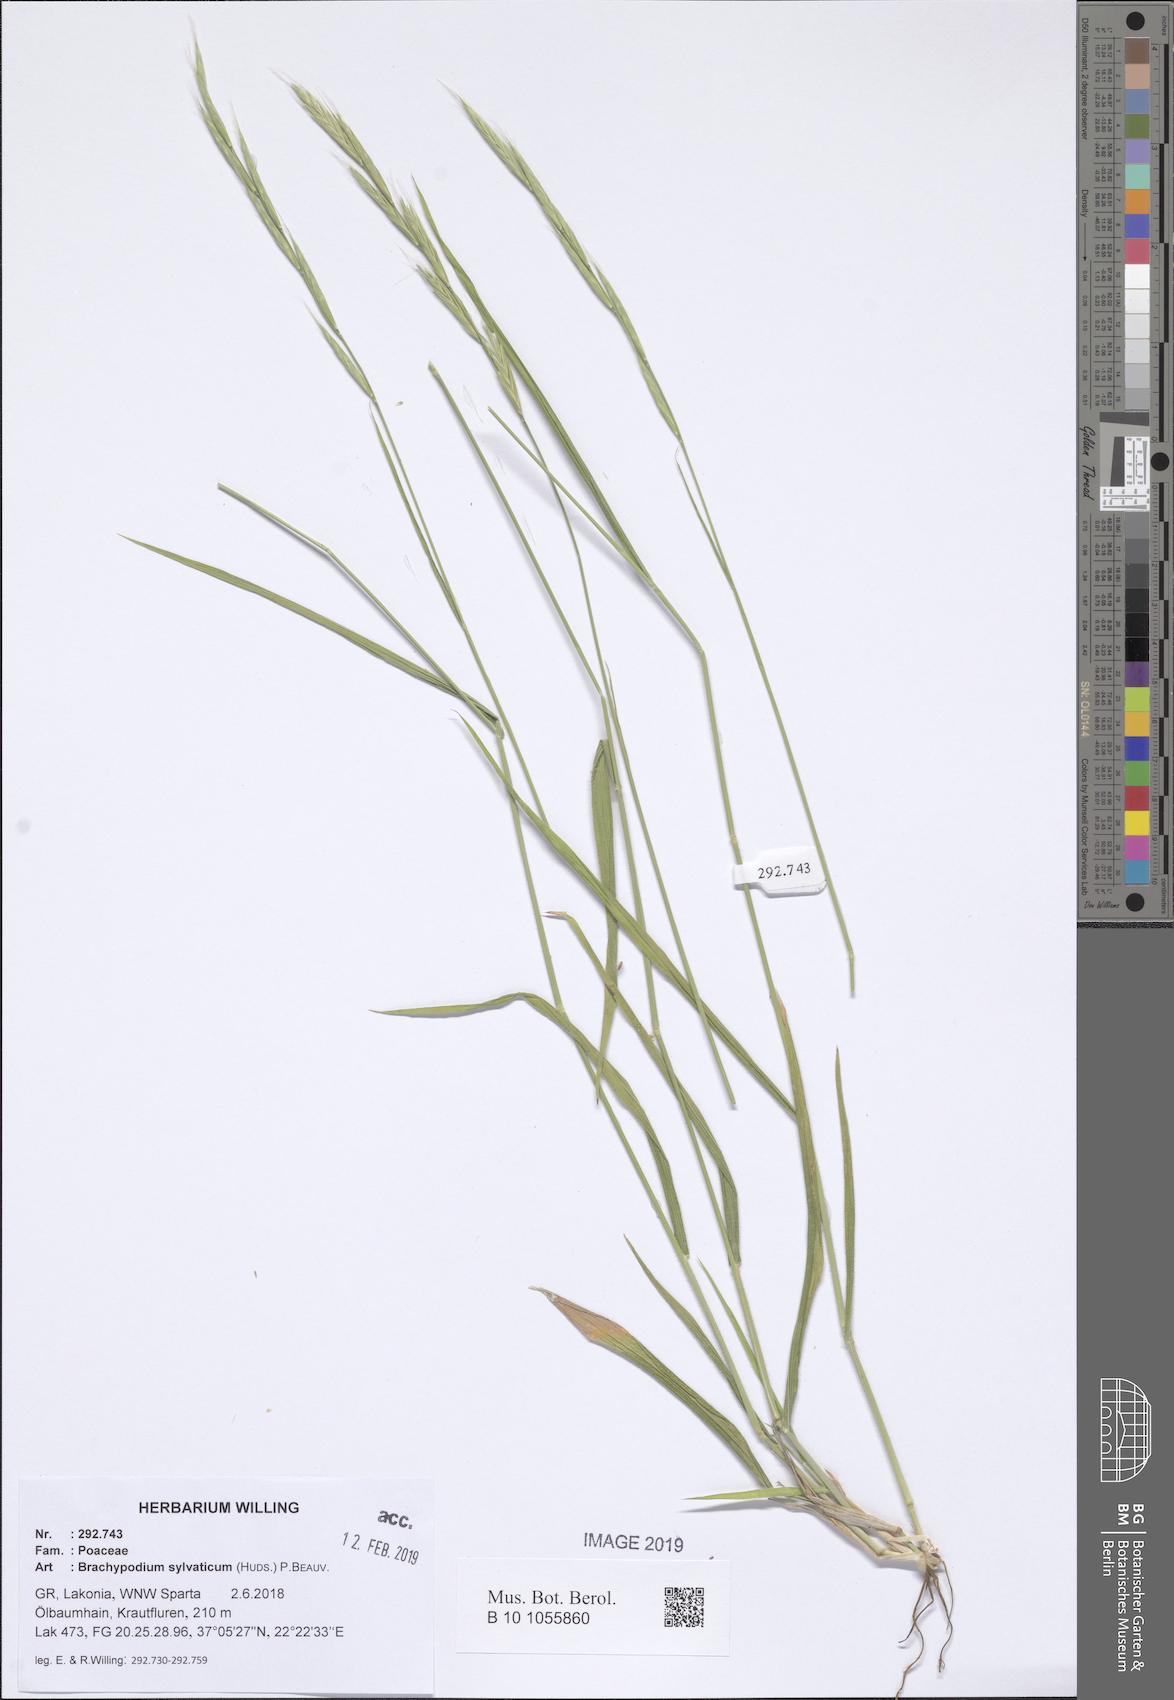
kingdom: Plantae
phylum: Tracheophyta
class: Liliopsida
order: Poales
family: Poaceae
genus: Brachypodium
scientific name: Brachypodium sylvaticum
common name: False-brome
